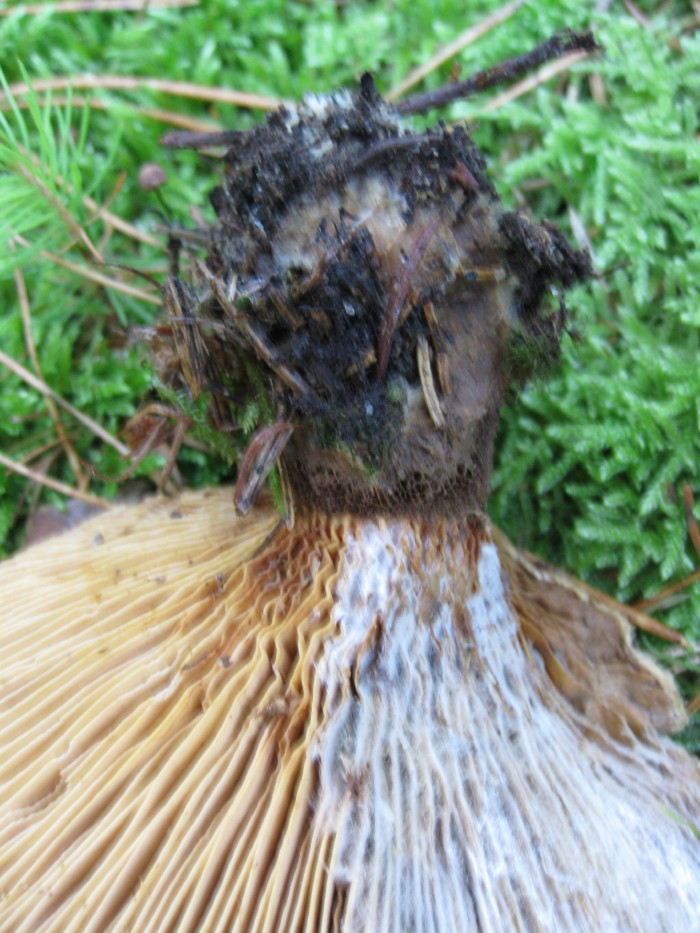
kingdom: Fungi
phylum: Basidiomycota
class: Agaricomycetes
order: Boletales
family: Tapinellaceae
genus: Tapinella
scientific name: Tapinella atrotomentosa
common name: sortfiltet viftesvamp
